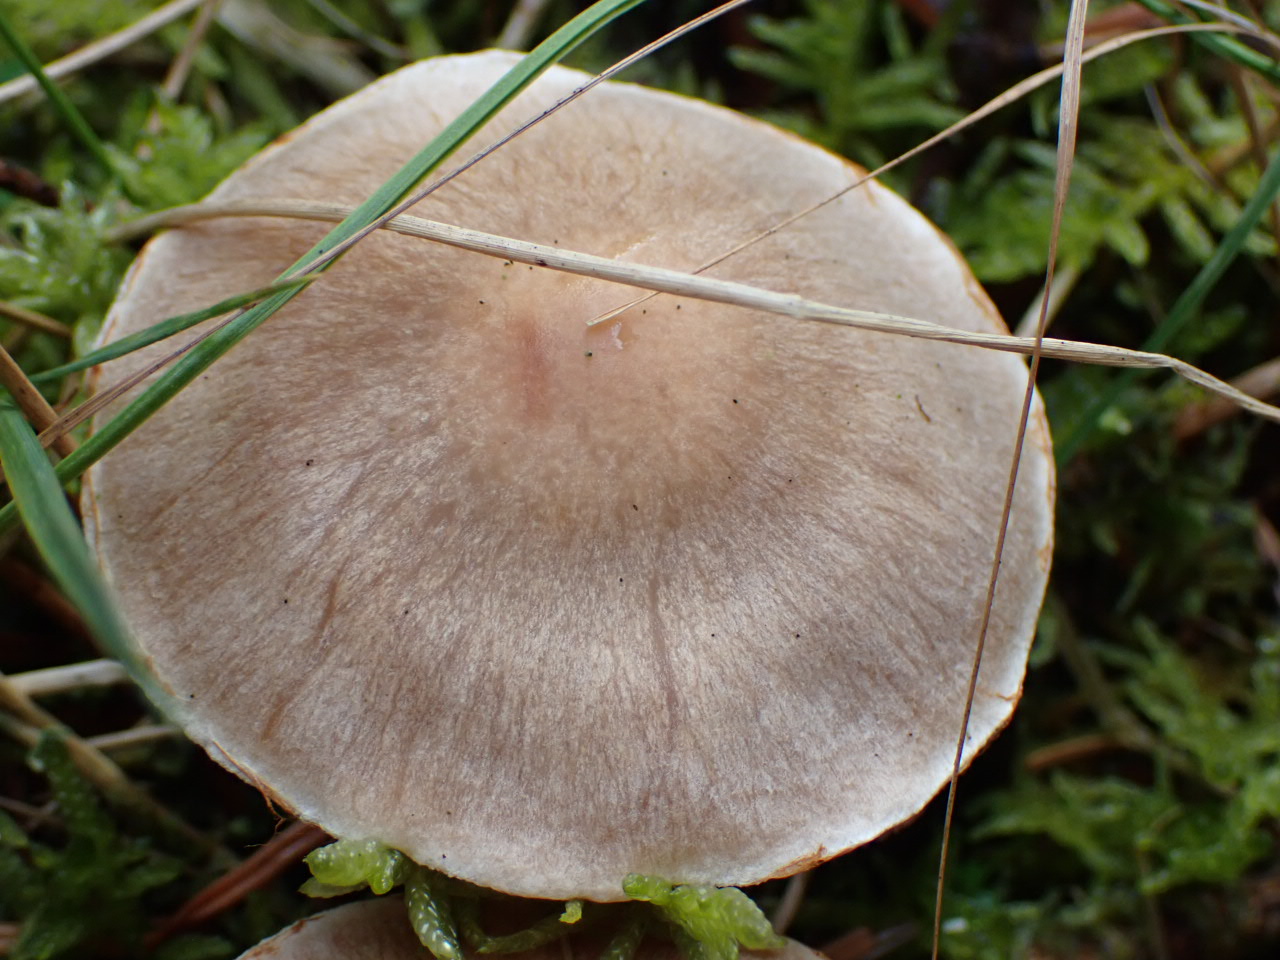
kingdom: Fungi
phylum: Basidiomycota
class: Agaricomycetes
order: Agaricales
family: Cortinariaceae
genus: Cortinarius
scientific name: Cortinarius malachius
